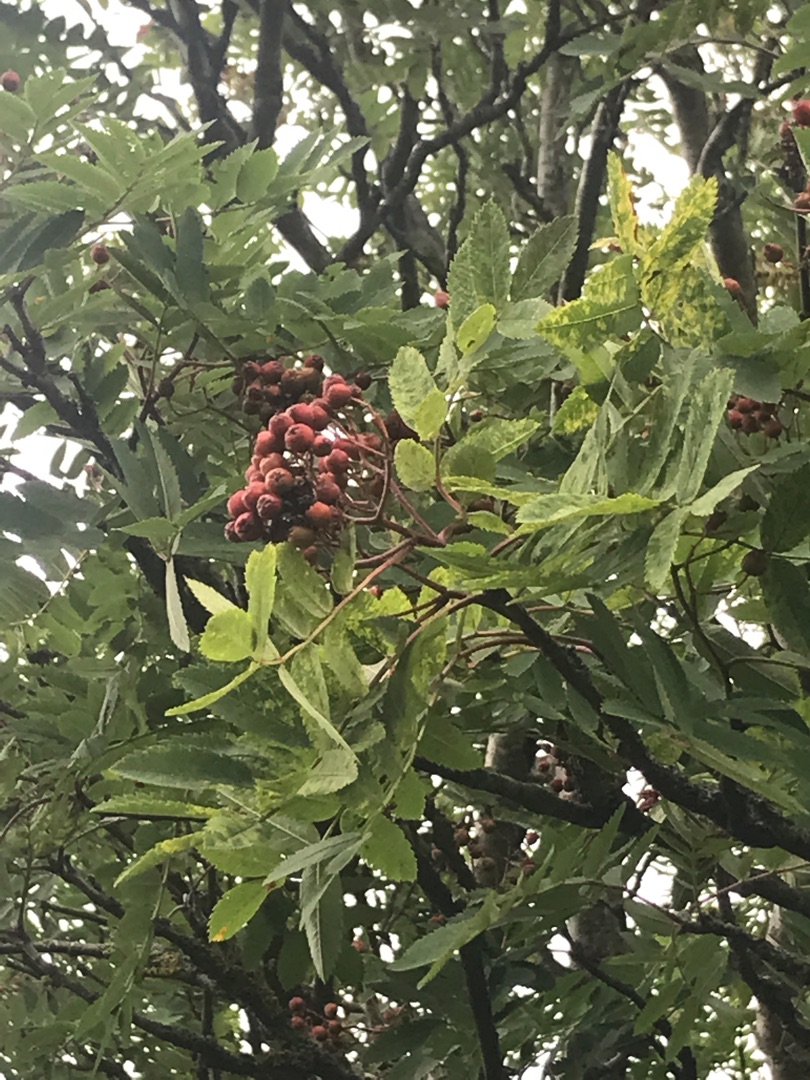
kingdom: Plantae
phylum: Tracheophyta
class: Magnoliopsida
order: Rosales
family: Rosaceae
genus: Sorbus
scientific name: Sorbus aucuparia
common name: Almindelig røn
